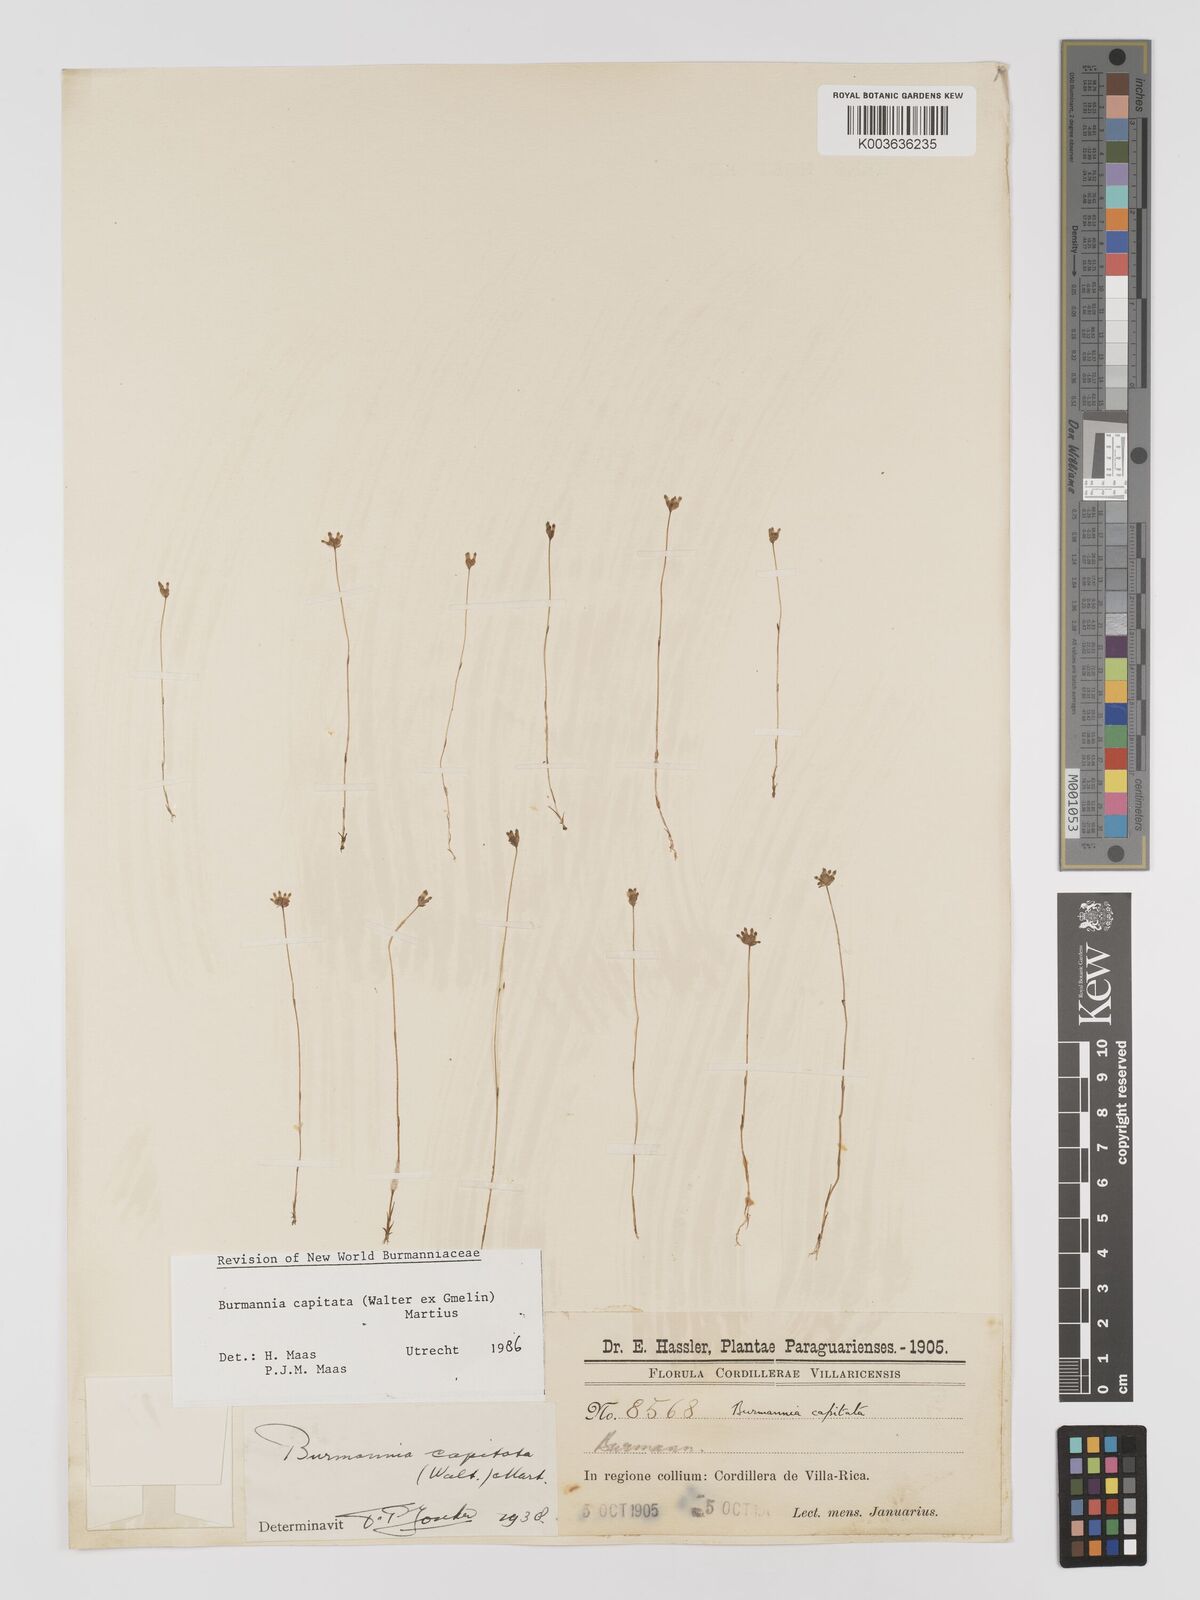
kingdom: Plantae
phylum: Tracheophyta
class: Liliopsida
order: Dioscoreales
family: Burmanniaceae
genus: Burmannia
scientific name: Burmannia capitata
